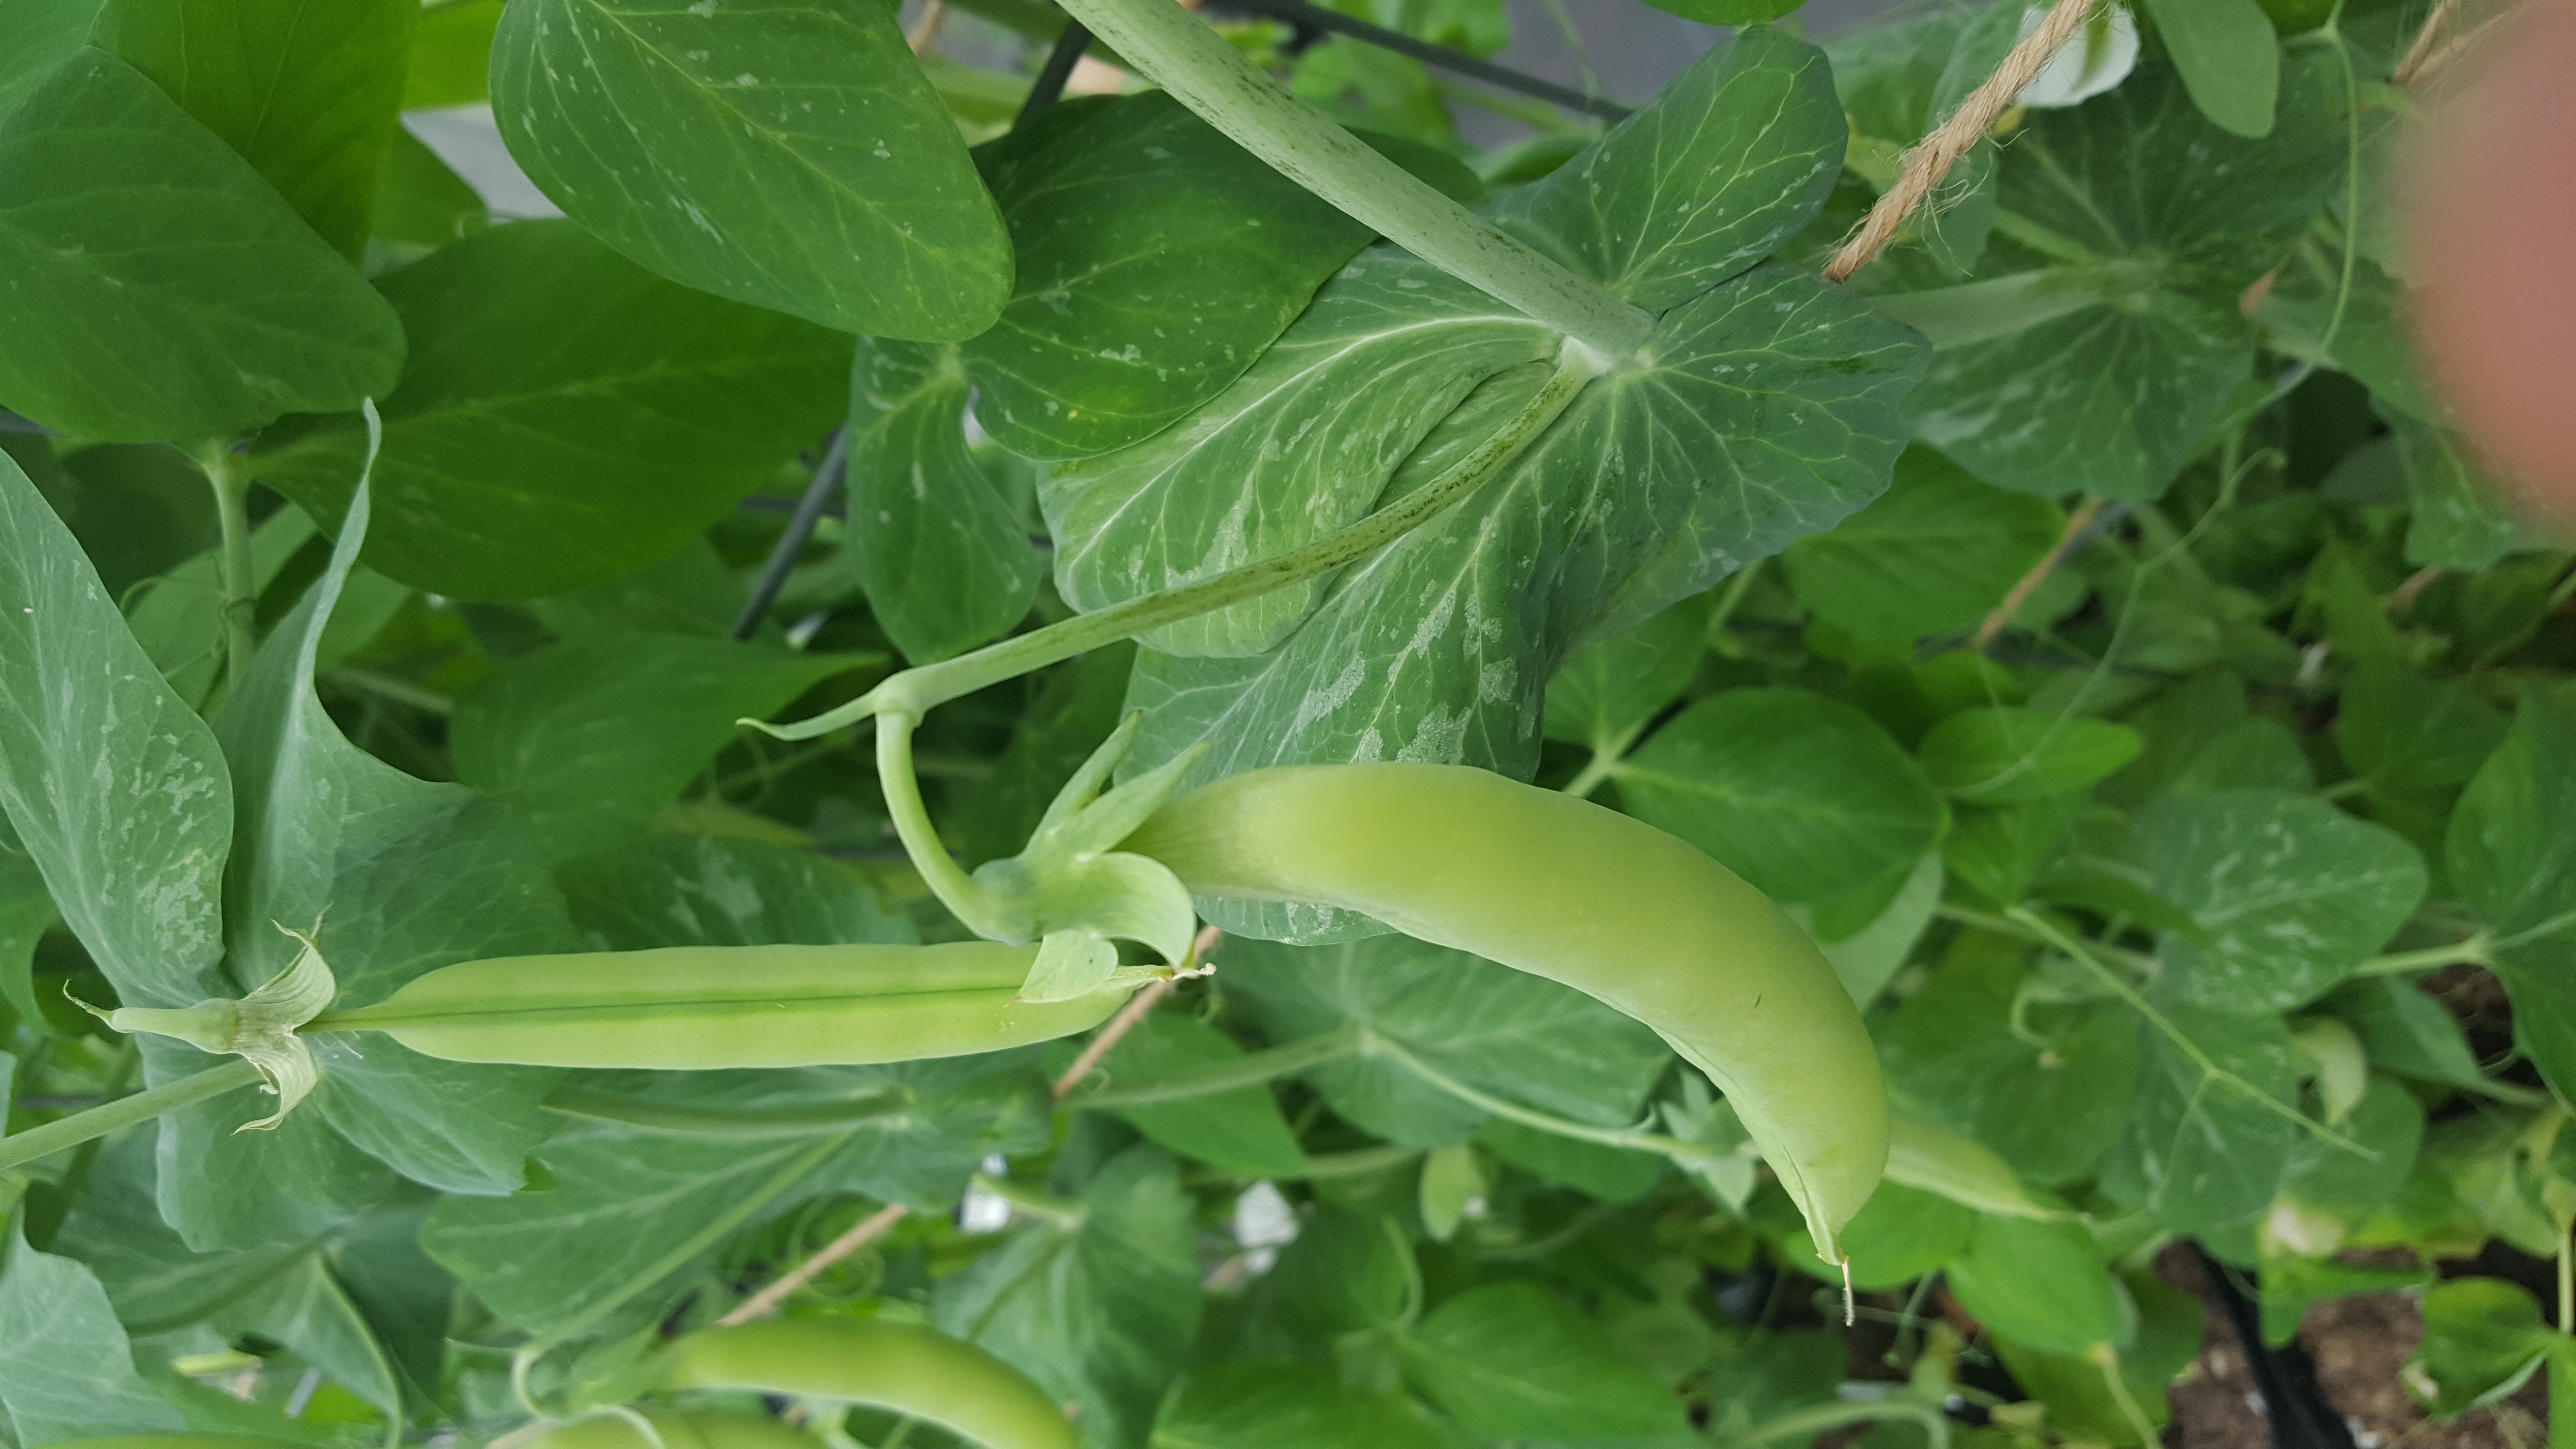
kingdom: Plantae
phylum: Tracheophyta
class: Magnoliopsida
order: Fabales
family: Fabaceae
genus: Lathyrus
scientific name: Lathyrus oleraceus
